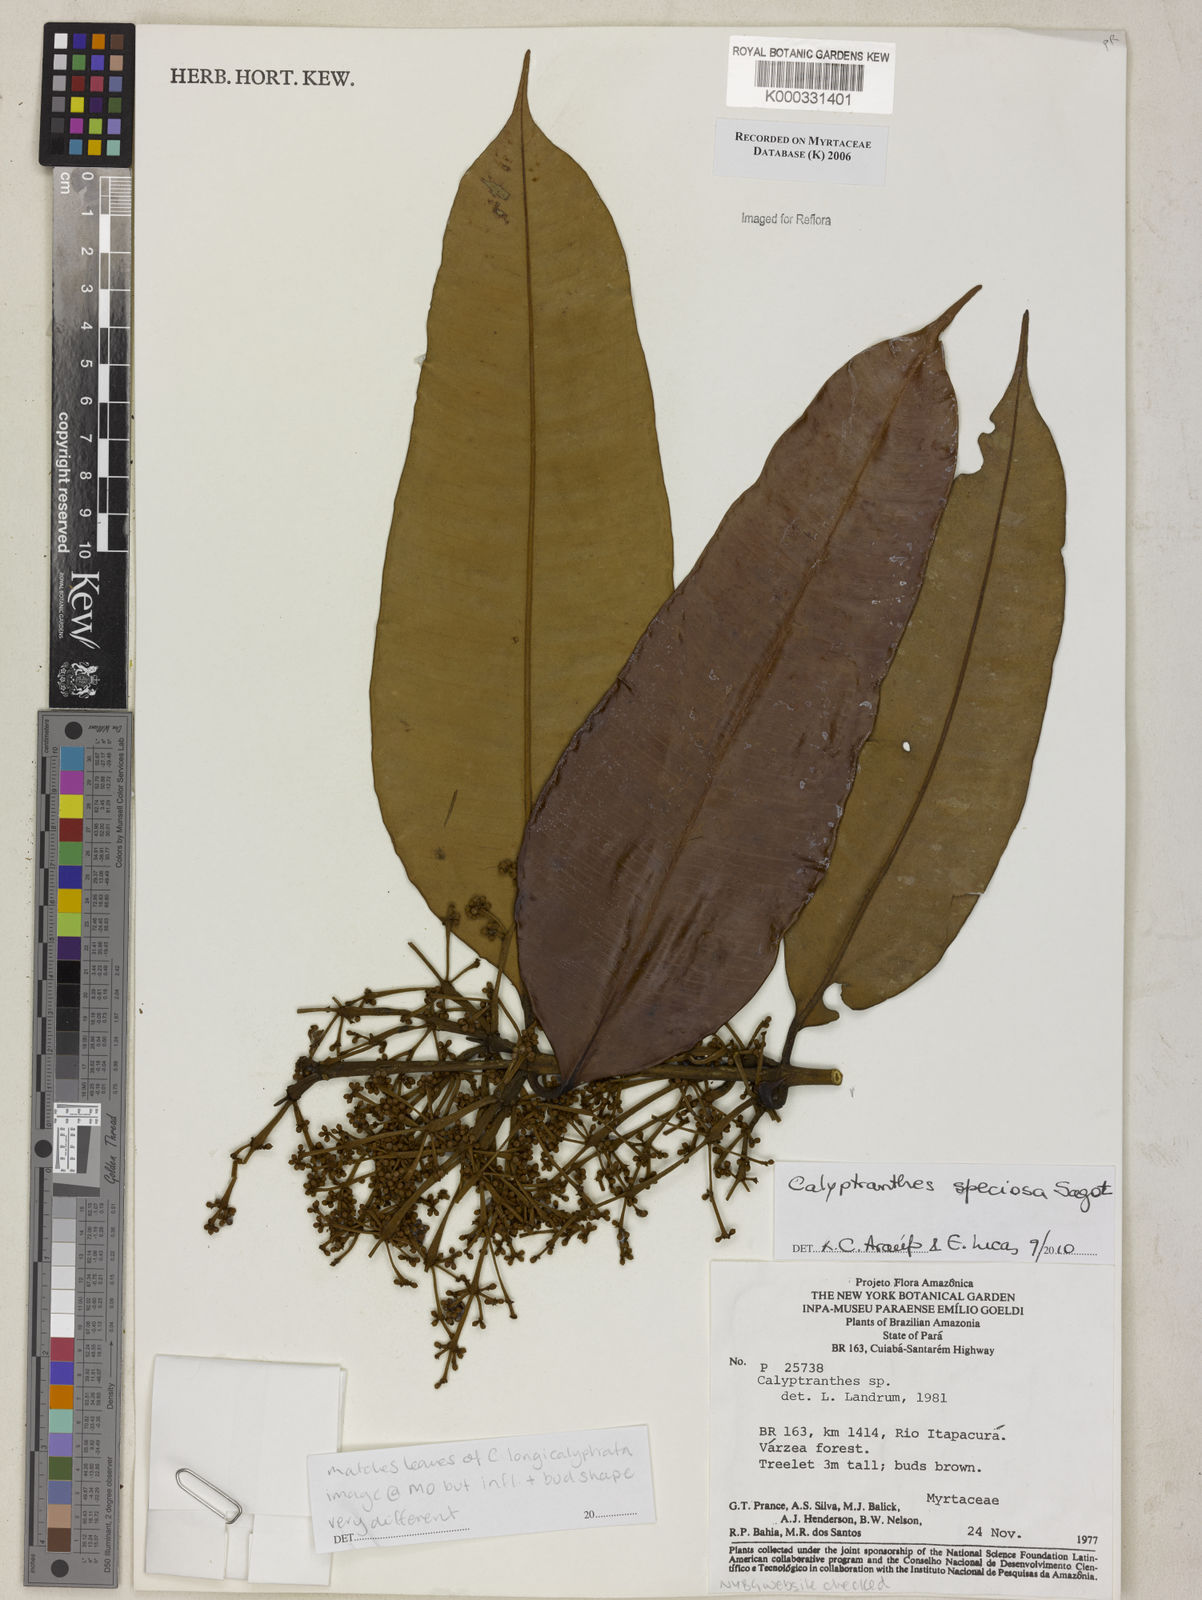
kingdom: Plantae
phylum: Tracheophyta
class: Magnoliopsida
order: Myrtales
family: Myrtaceae
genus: Calyptranthes
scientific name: Calyptranthes
